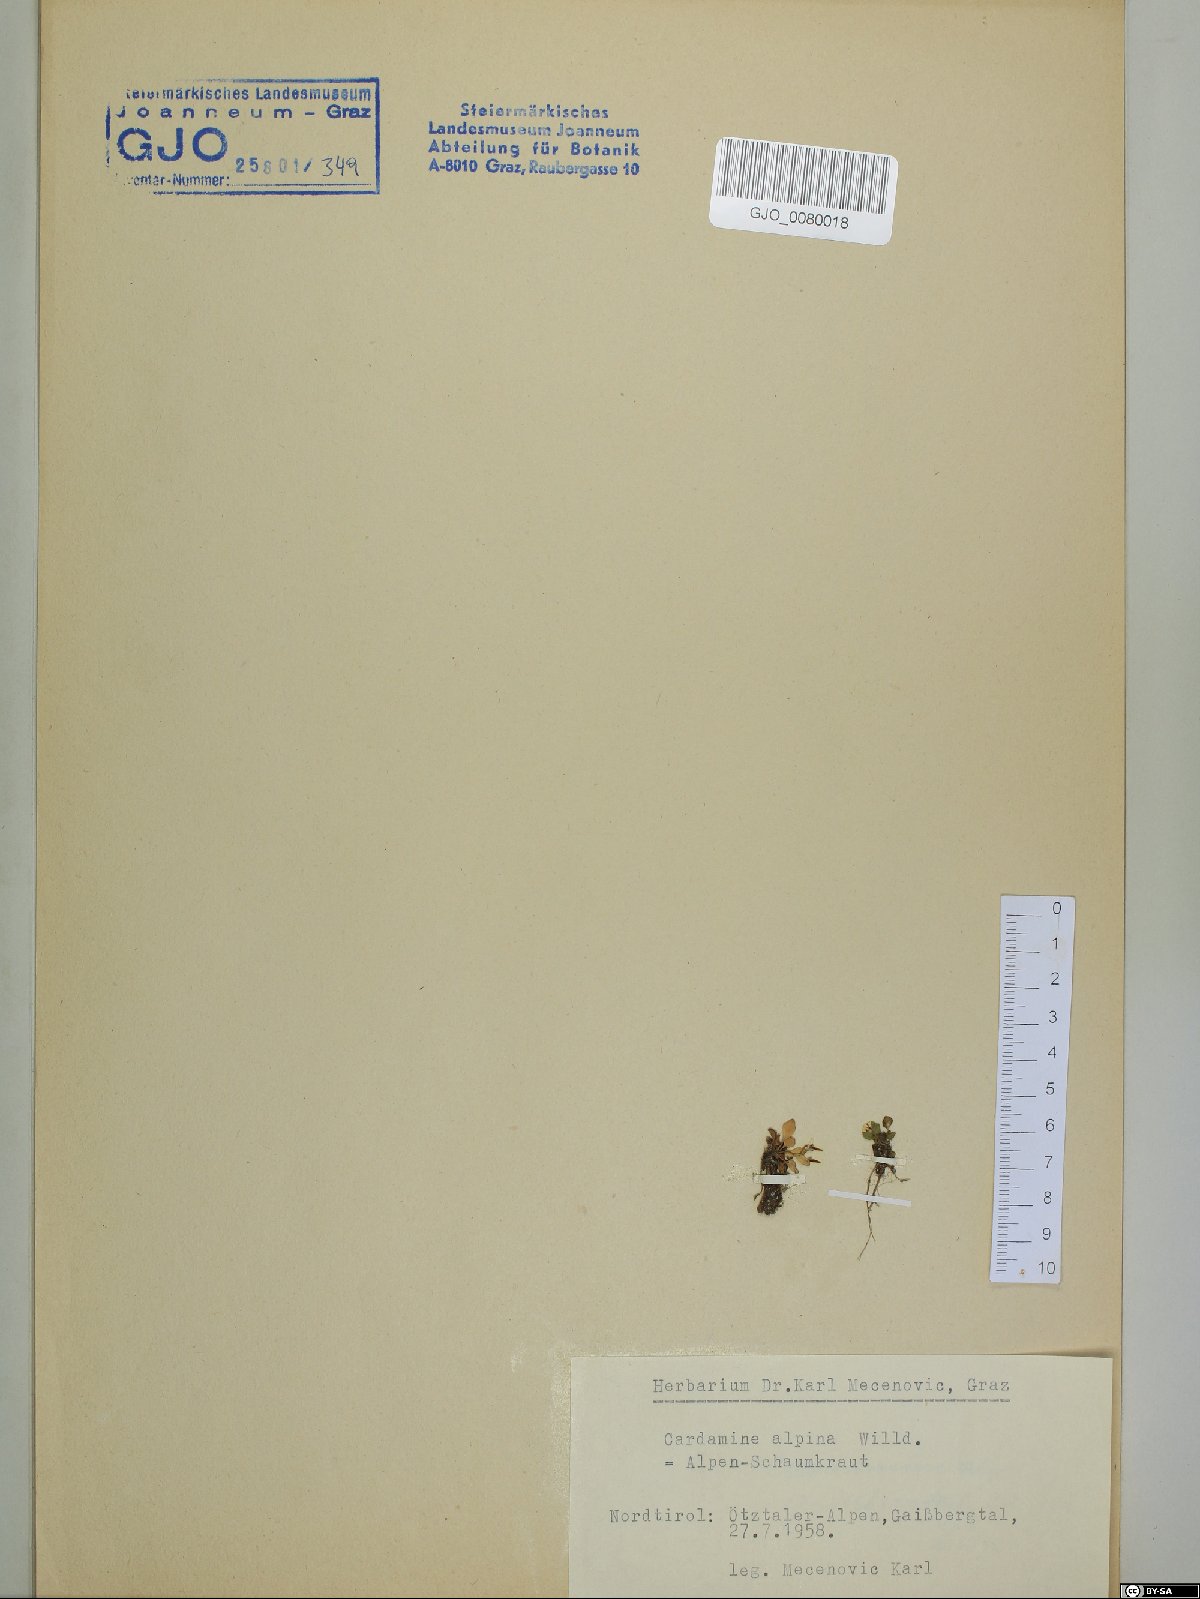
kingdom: Plantae
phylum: Tracheophyta
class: Magnoliopsida
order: Brassicales
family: Brassicaceae
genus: Cardamine
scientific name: Cardamine bellidifolia
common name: Alpine bittercress
